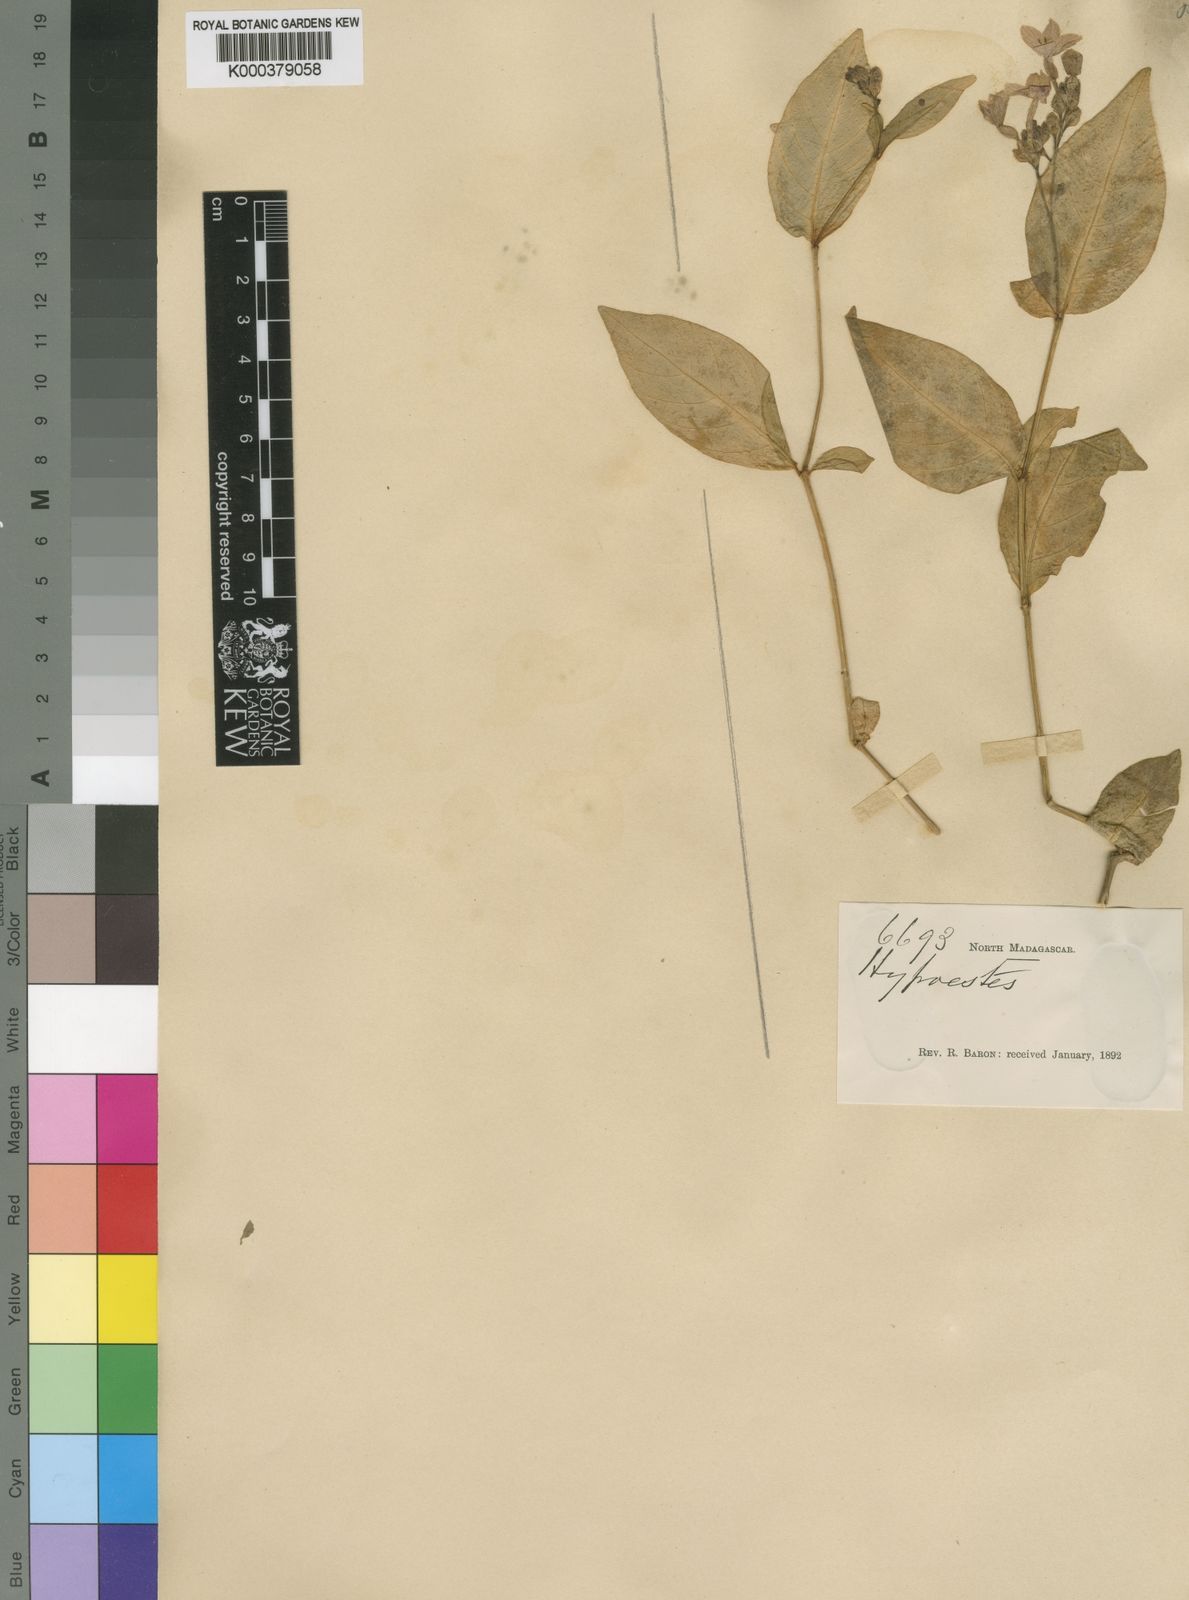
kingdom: Plantae
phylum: Tracheophyta
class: Magnoliopsida
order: Lamiales
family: Acanthaceae
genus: Hypoestes
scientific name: Hypoestes complanata
